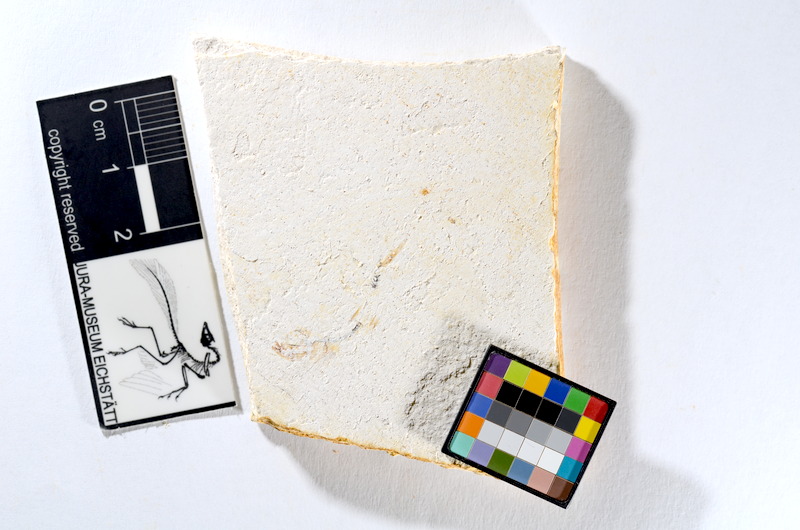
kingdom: Animalia
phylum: Chordata
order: Salmoniformes
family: Orthogonikleithridae
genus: Orthogonikleithrus
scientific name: Orthogonikleithrus hoelli
